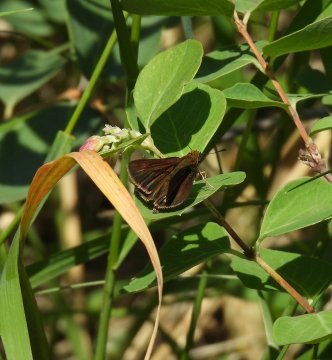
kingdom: Animalia
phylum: Arthropoda
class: Insecta
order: Lepidoptera
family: Hesperiidae
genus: Euphyes
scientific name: Euphyes vestris
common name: Dun Skipper
